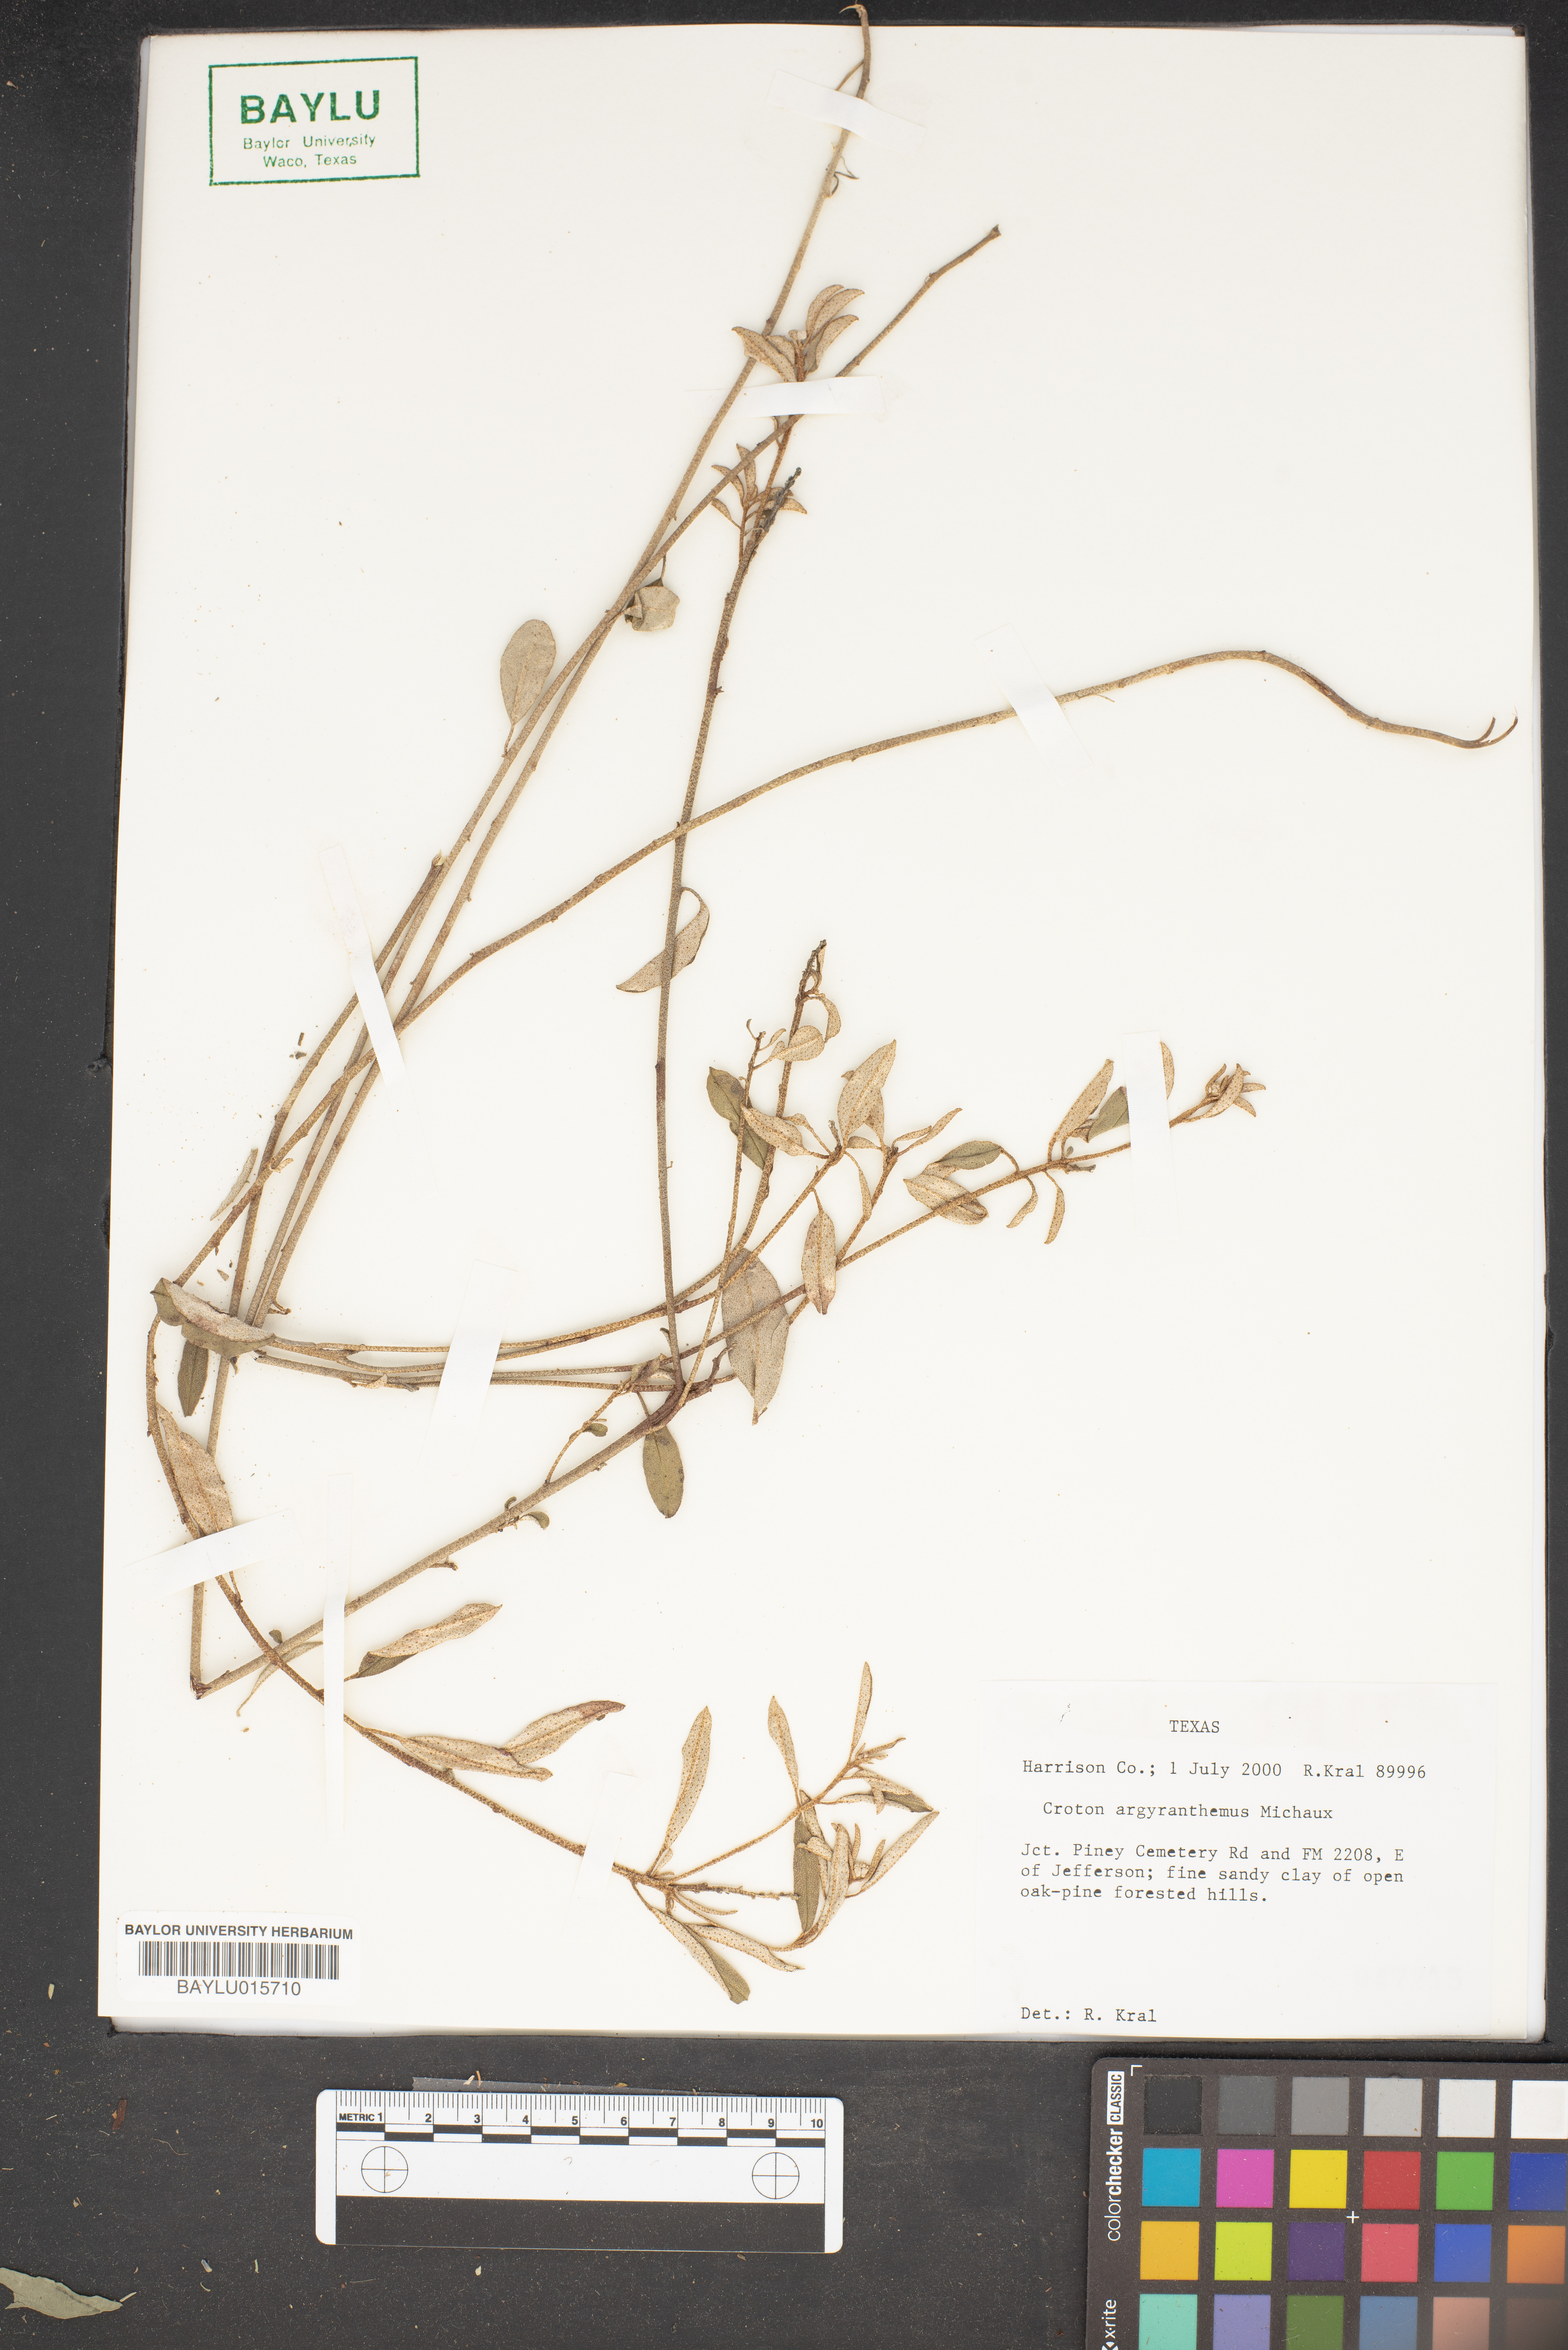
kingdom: Plantae
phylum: Tracheophyta
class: Magnoliopsida
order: Malpighiales
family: Euphorbiaceae
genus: Croton
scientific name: Croton argyranthemus
